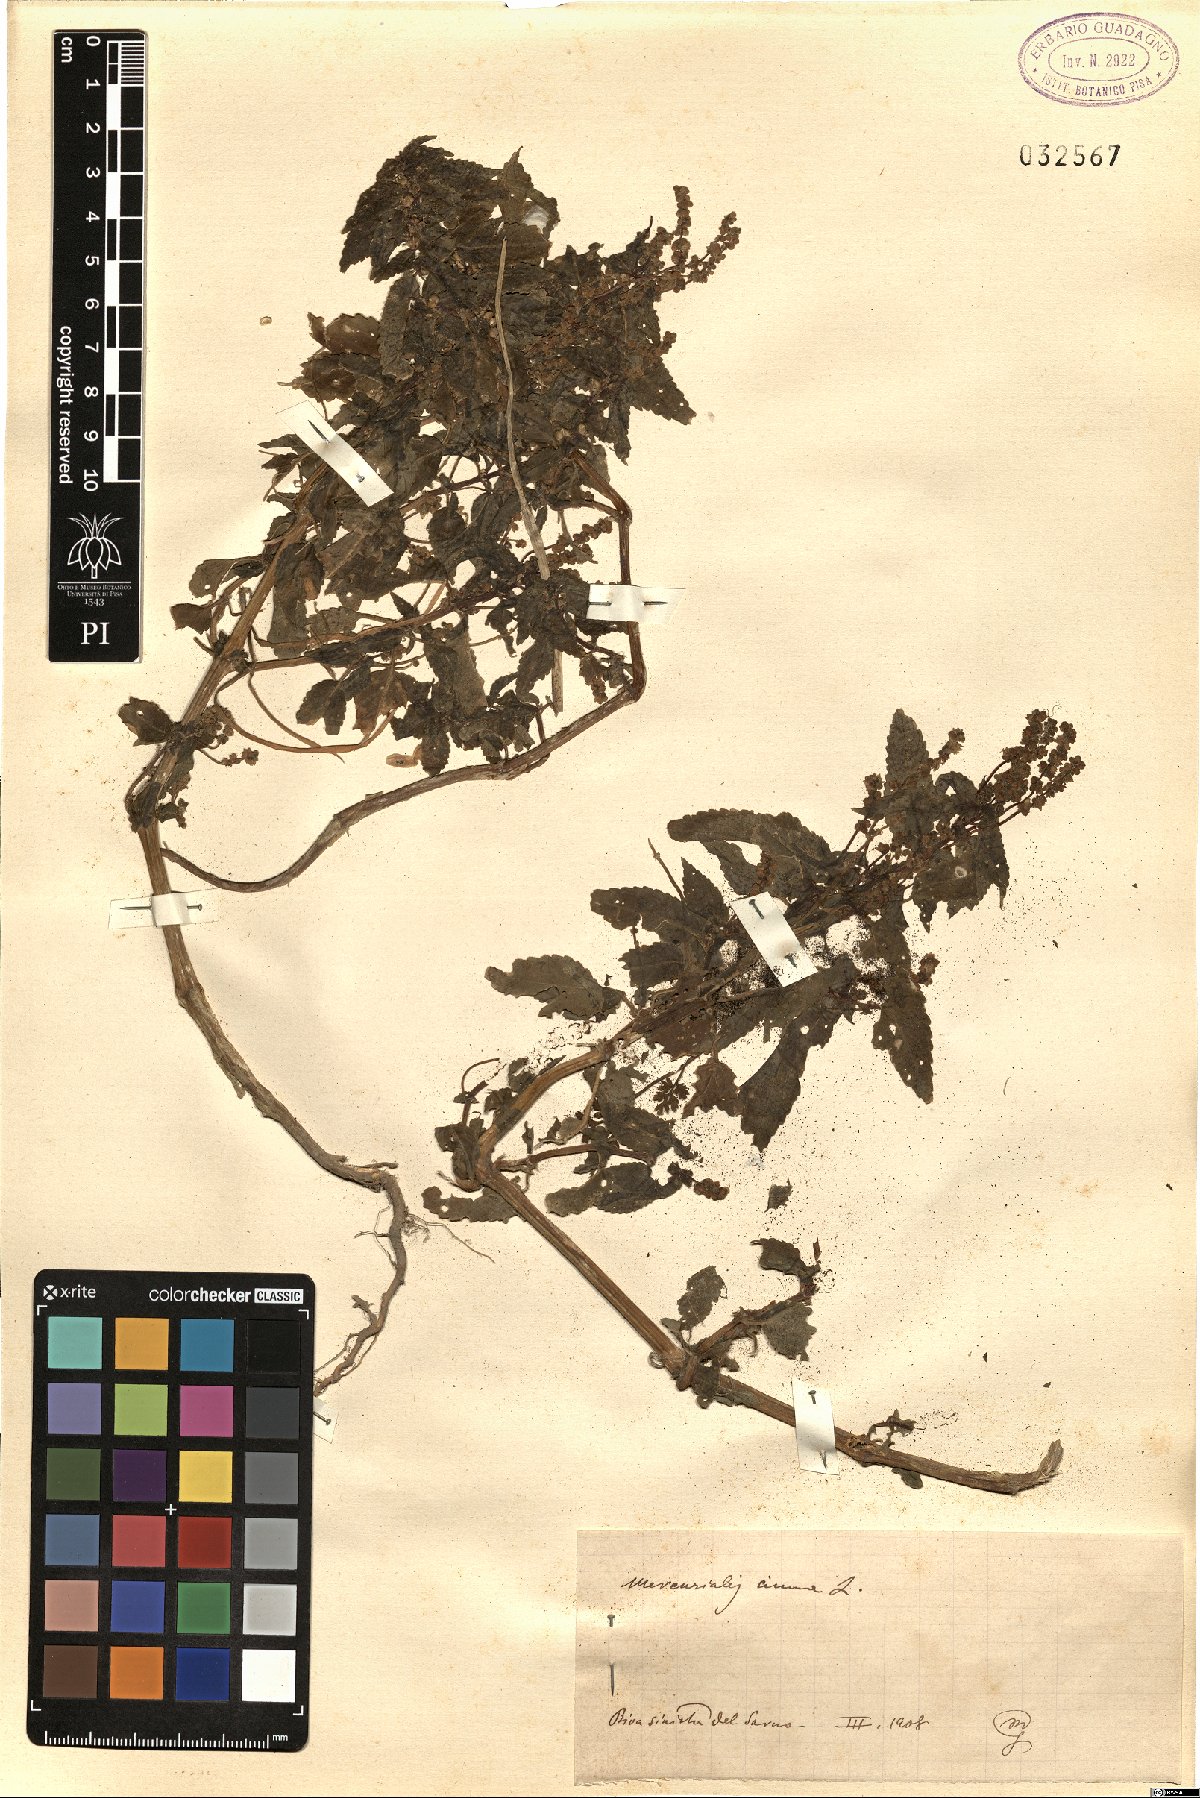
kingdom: Plantae
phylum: Tracheophyta
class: Magnoliopsida
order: Malpighiales
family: Euphorbiaceae
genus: Mercurialis
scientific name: Mercurialis annua
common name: Annual mercury
